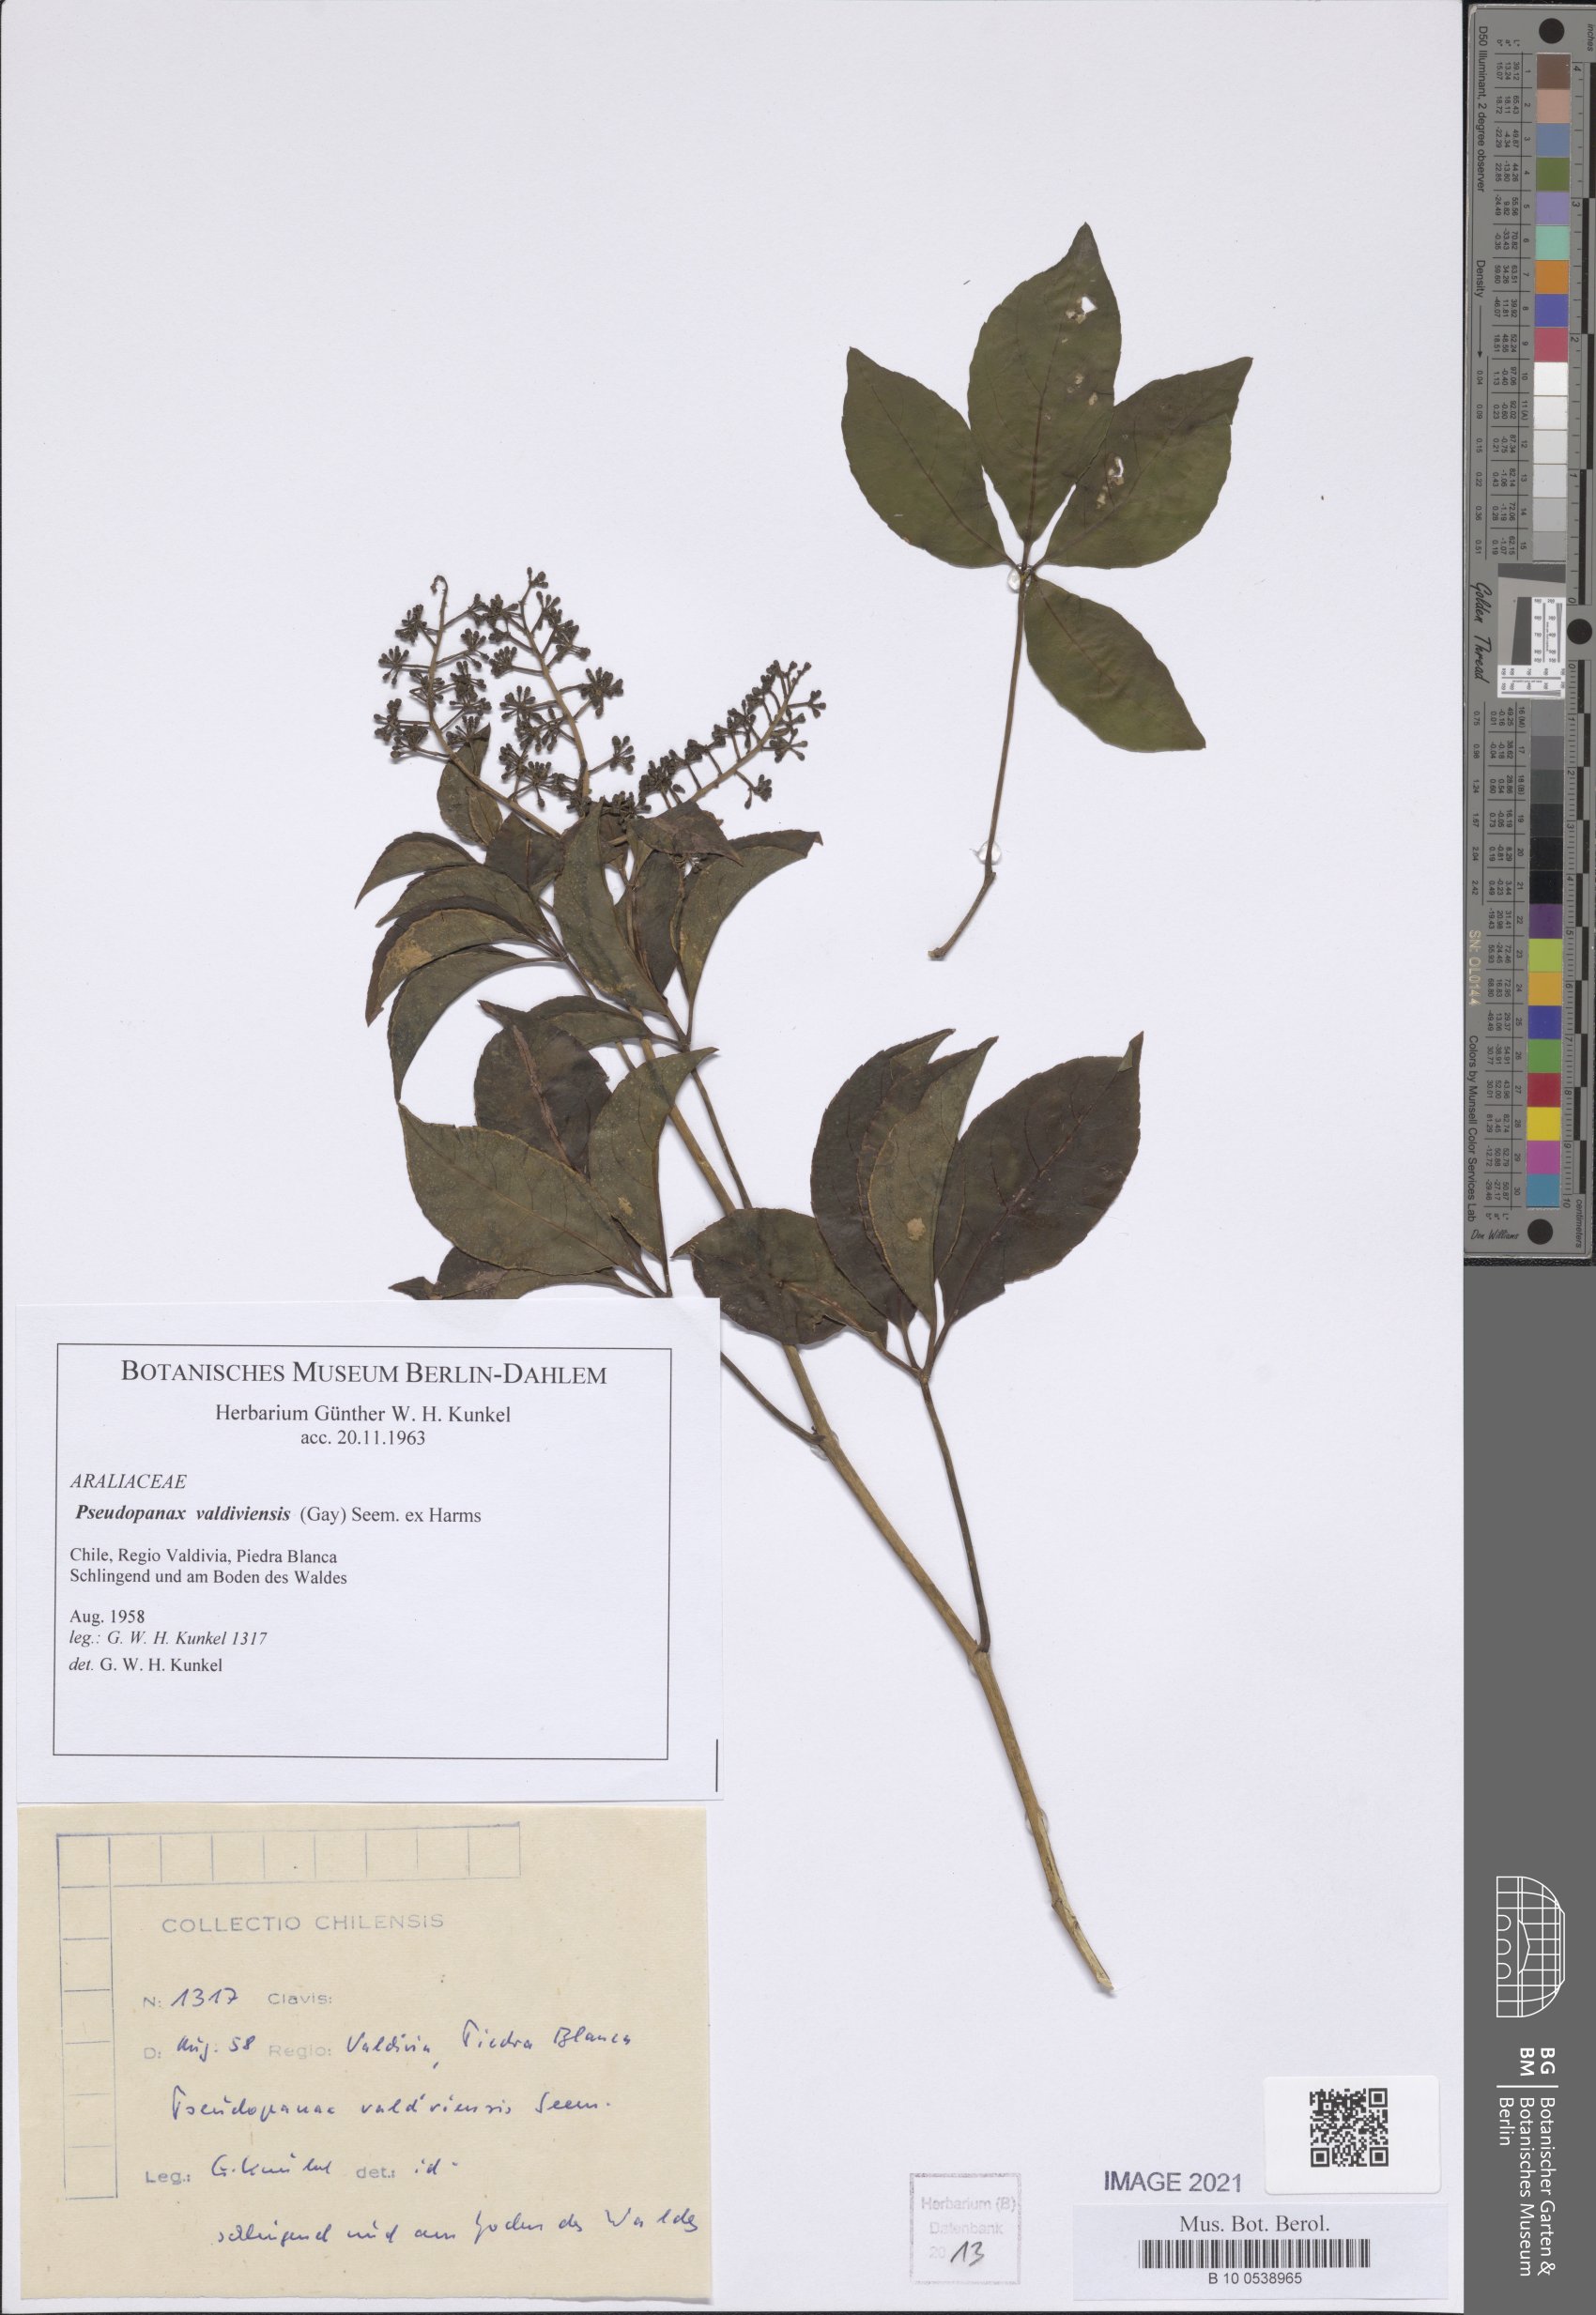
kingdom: Plantae
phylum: Tracheophyta
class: Magnoliopsida
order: Apiales
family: Araliaceae
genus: Raukaua
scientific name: Raukaua valdiviensis
